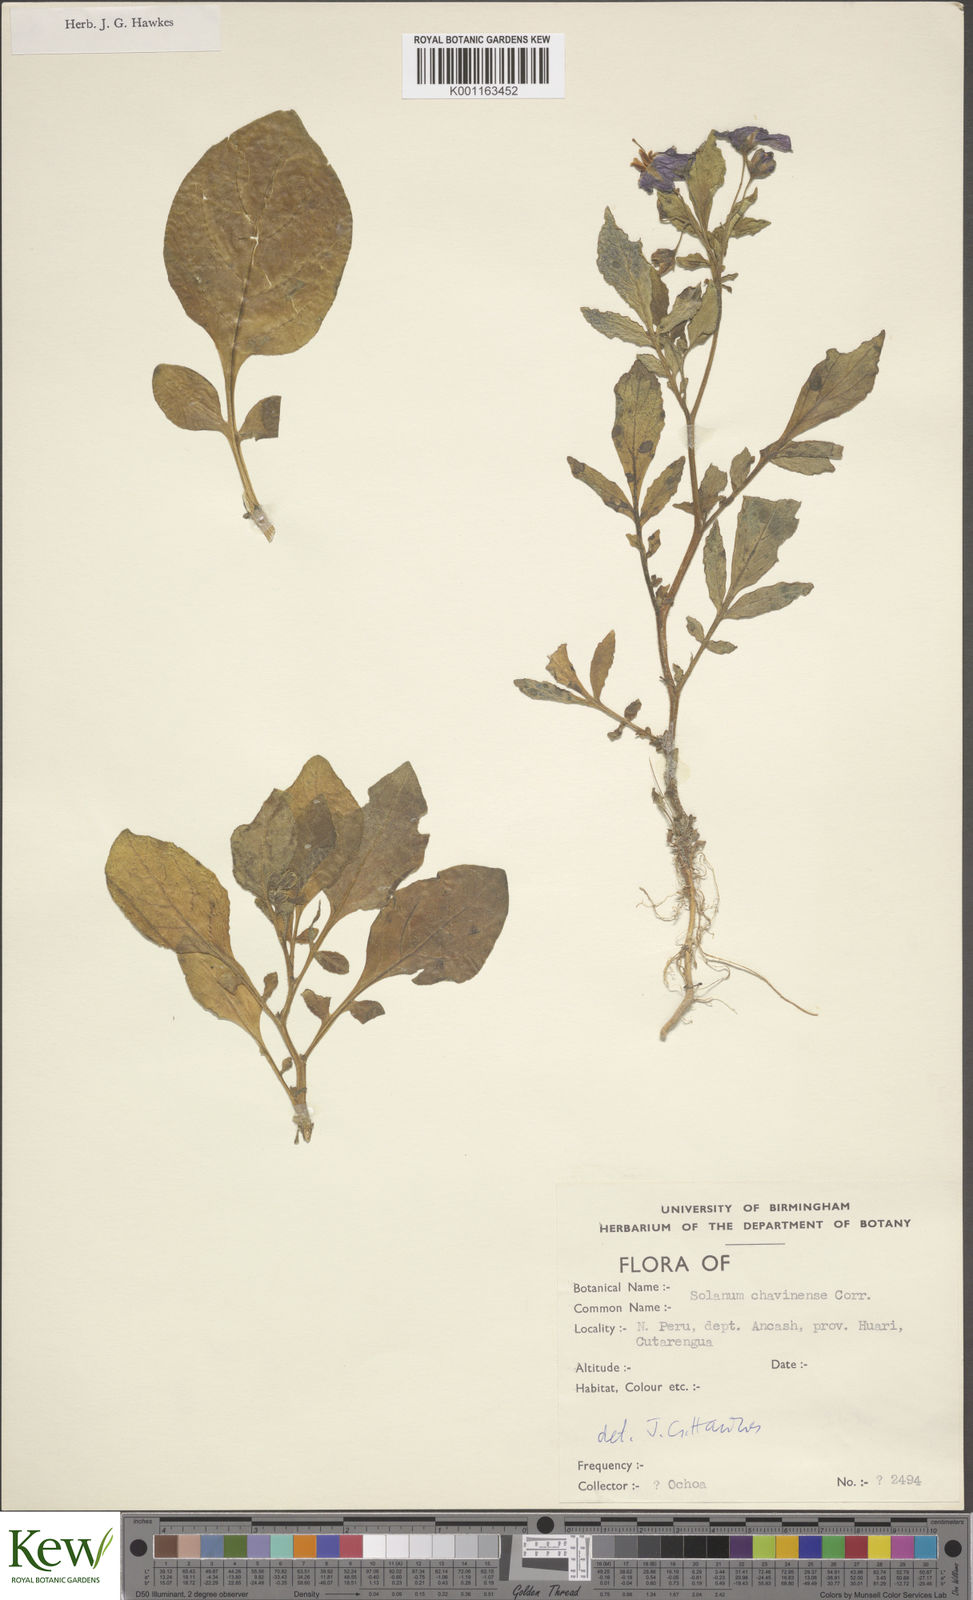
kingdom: Plantae
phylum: Tracheophyta
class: Magnoliopsida
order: Solanales
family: Solanaceae
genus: Solanum
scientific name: Solanum dolichocremastrum
